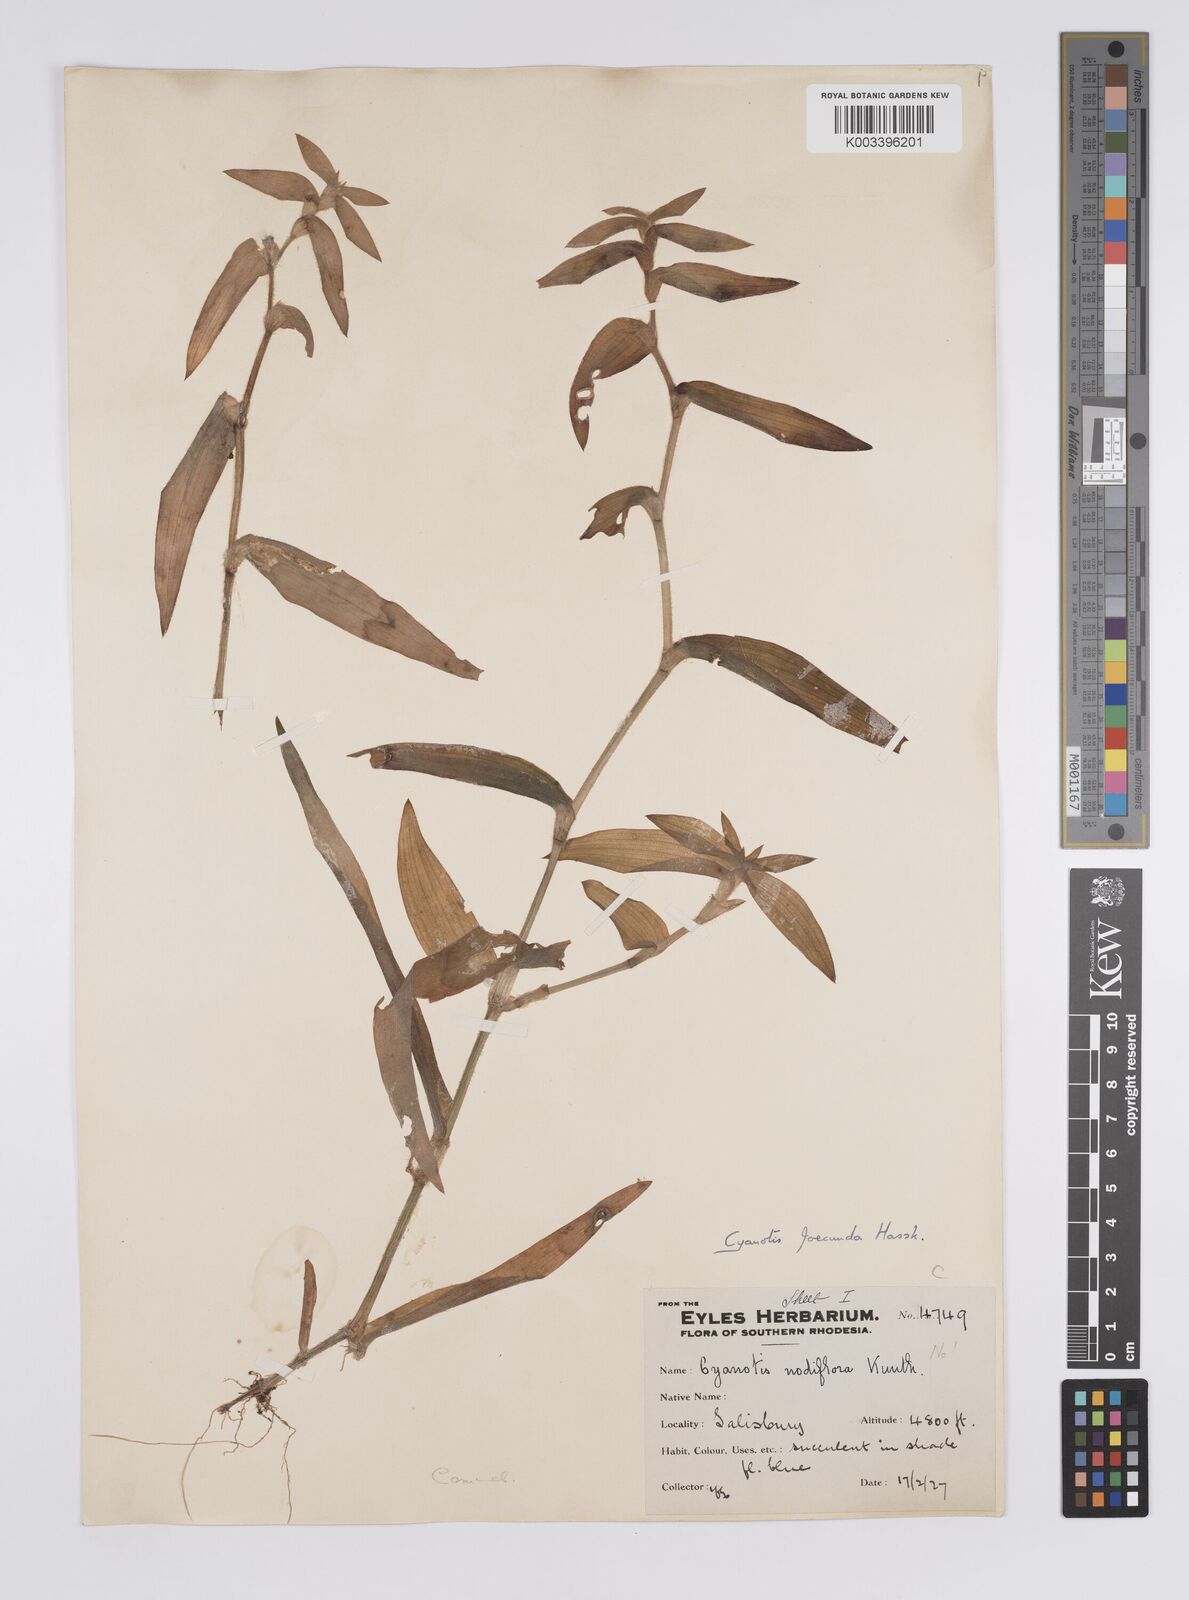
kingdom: Plantae
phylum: Tracheophyta
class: Liliopsida
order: Commelinales
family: Commelinaceae
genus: Cyanotis
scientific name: Cyanotis foecunda
